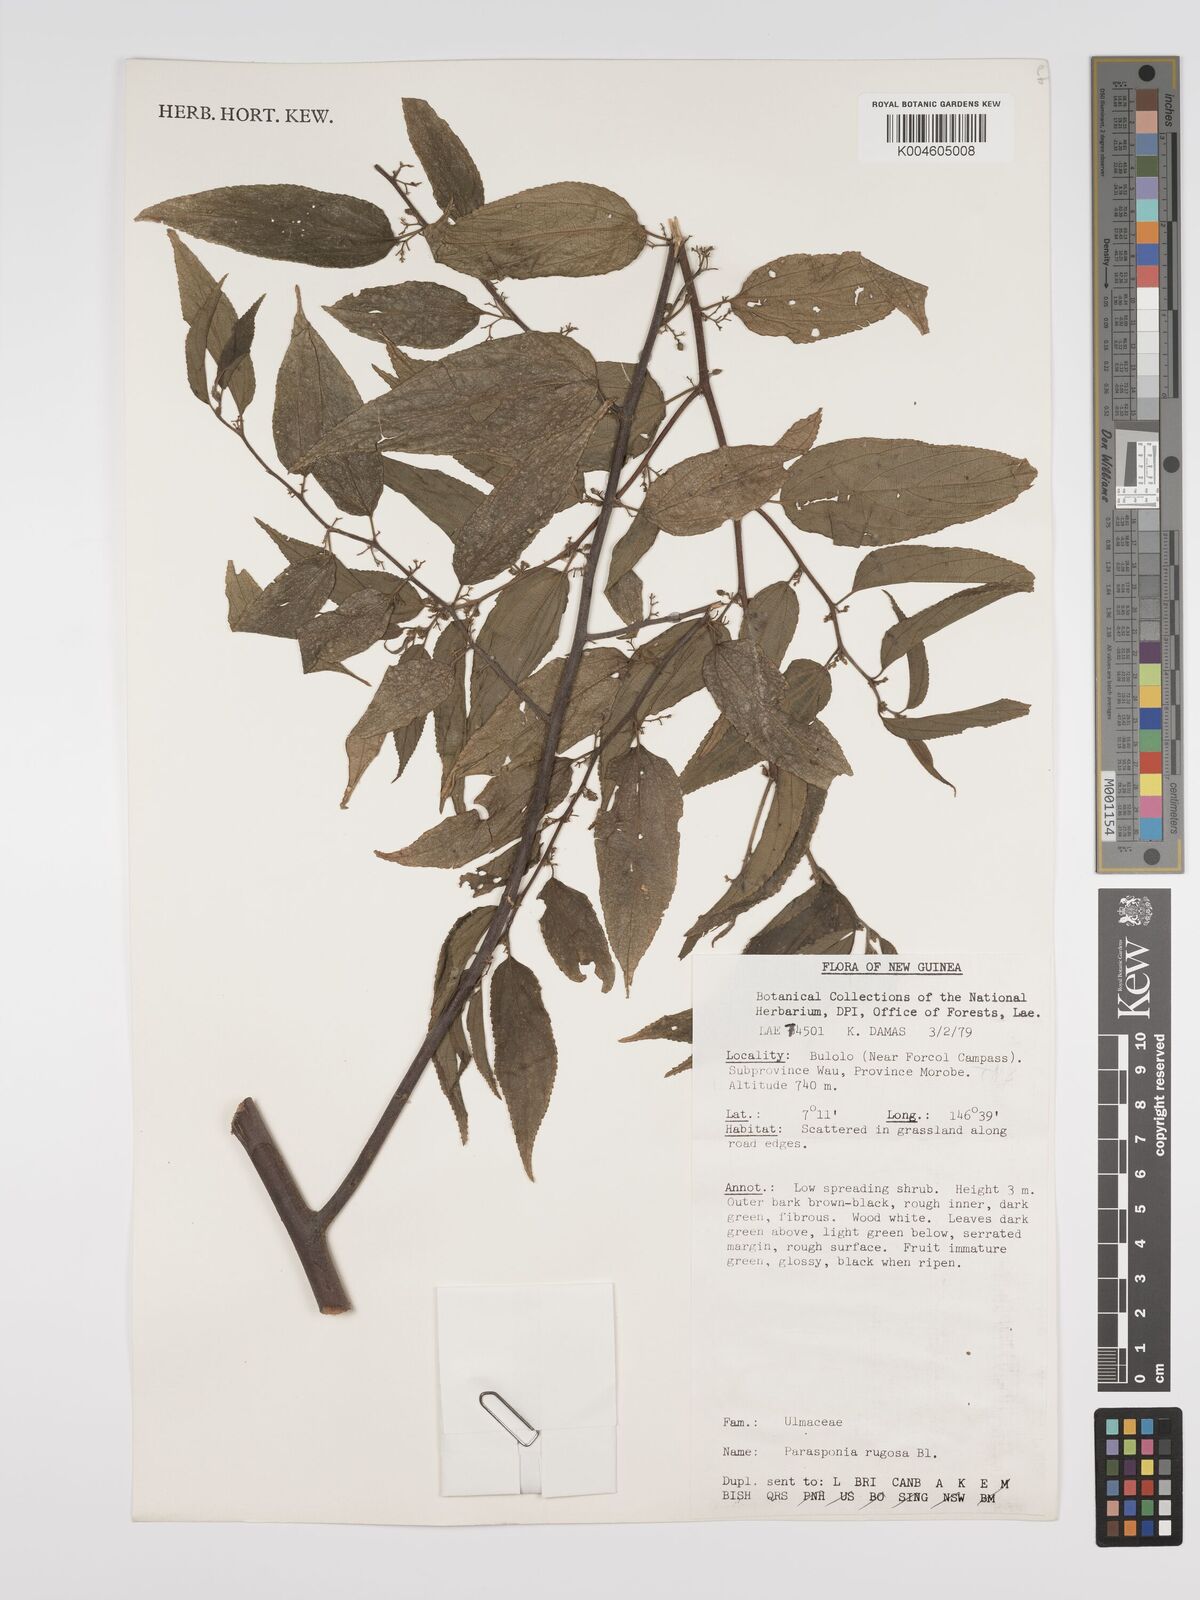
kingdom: Plantae
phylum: Tracheophyta
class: Magnoliopsida
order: Rosales
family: Cannabaceae
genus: Trema
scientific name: Trema eurhynchum
